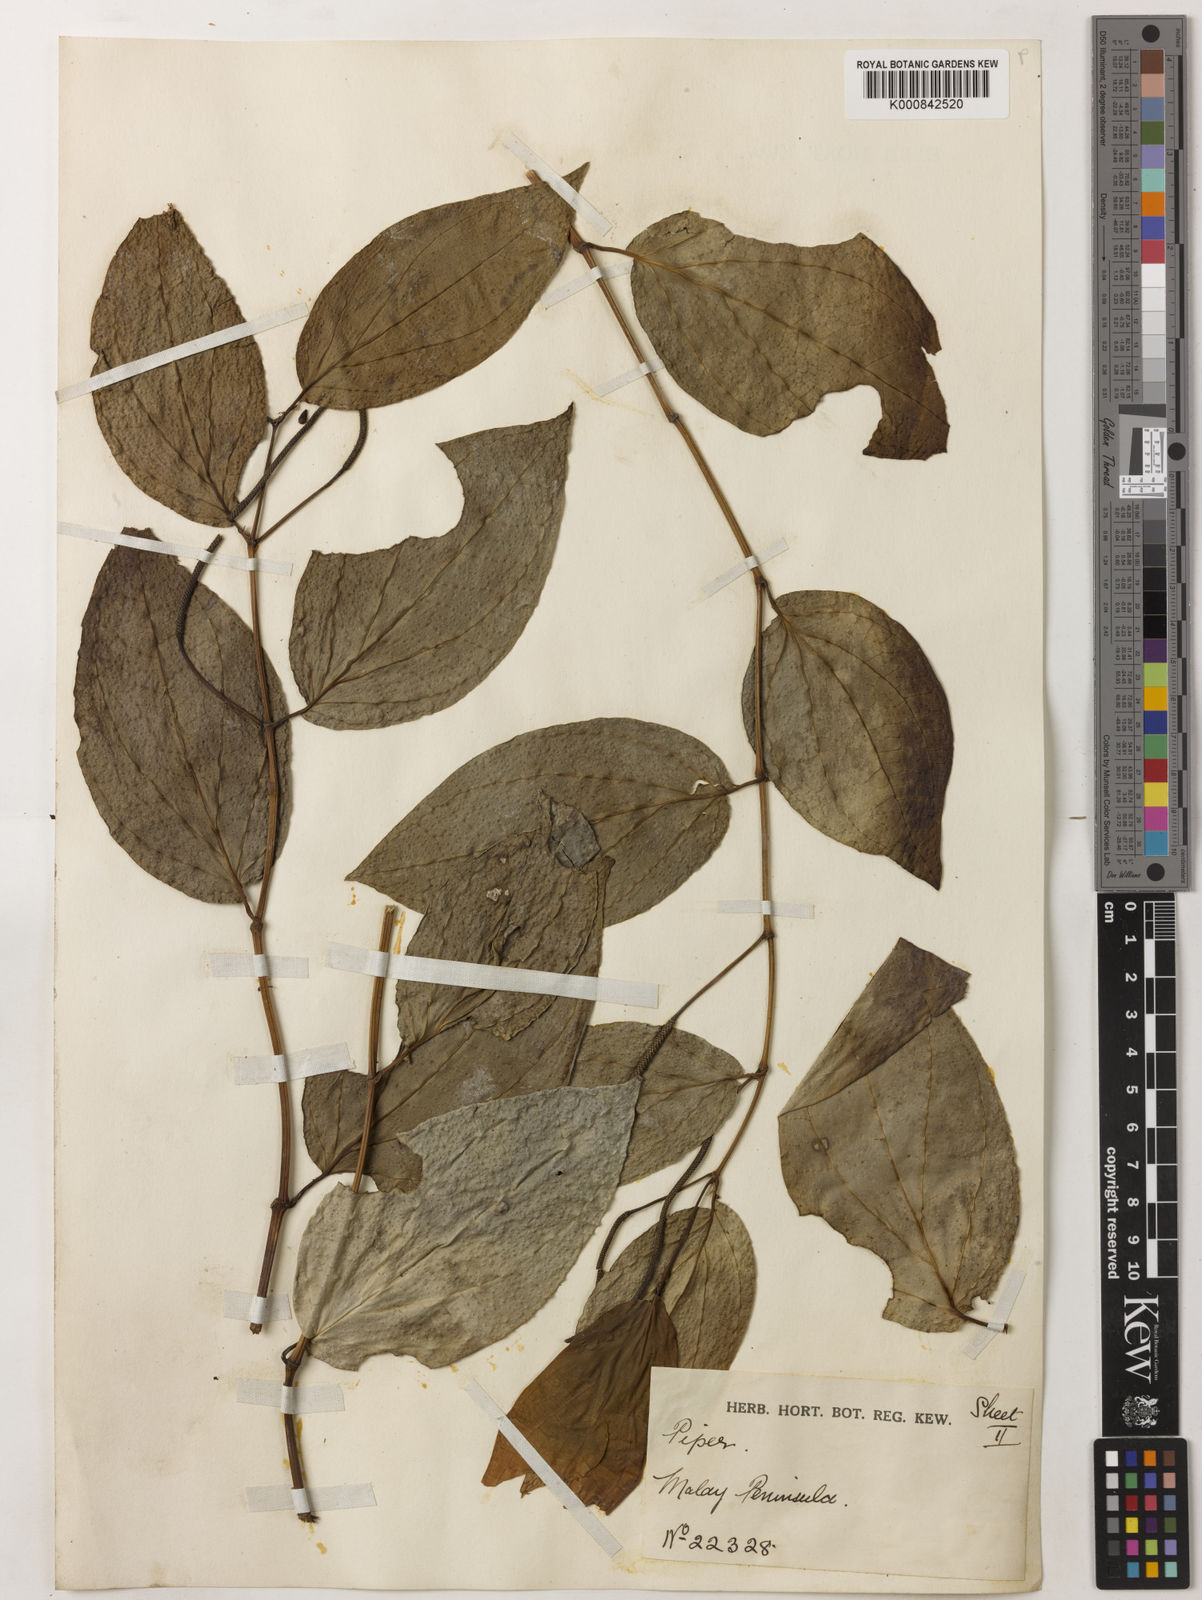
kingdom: Plantae
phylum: Tracheophyta
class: Magnoliopsida
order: Piperales
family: Piperaceae
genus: Piper
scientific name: Piper
